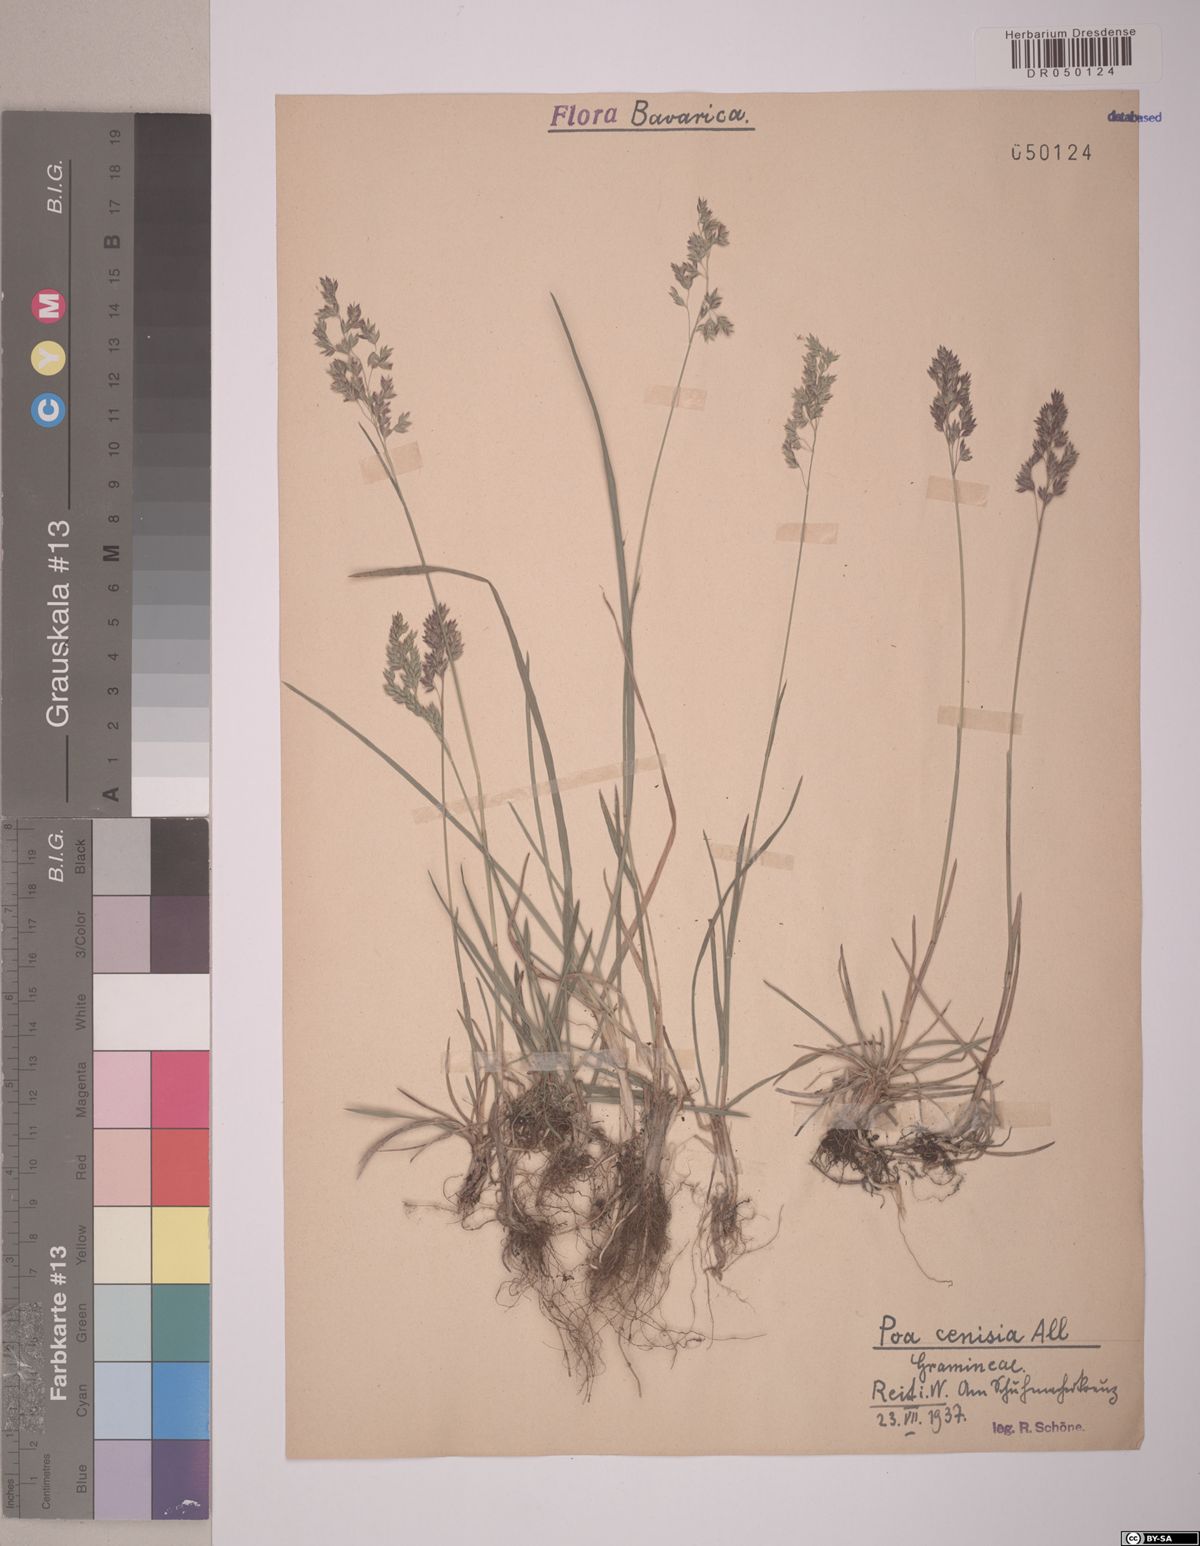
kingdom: Plantae
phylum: Tracheophyta
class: Liliopsida
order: Poales
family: Poaceae
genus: Poa
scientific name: Poa cenisia
